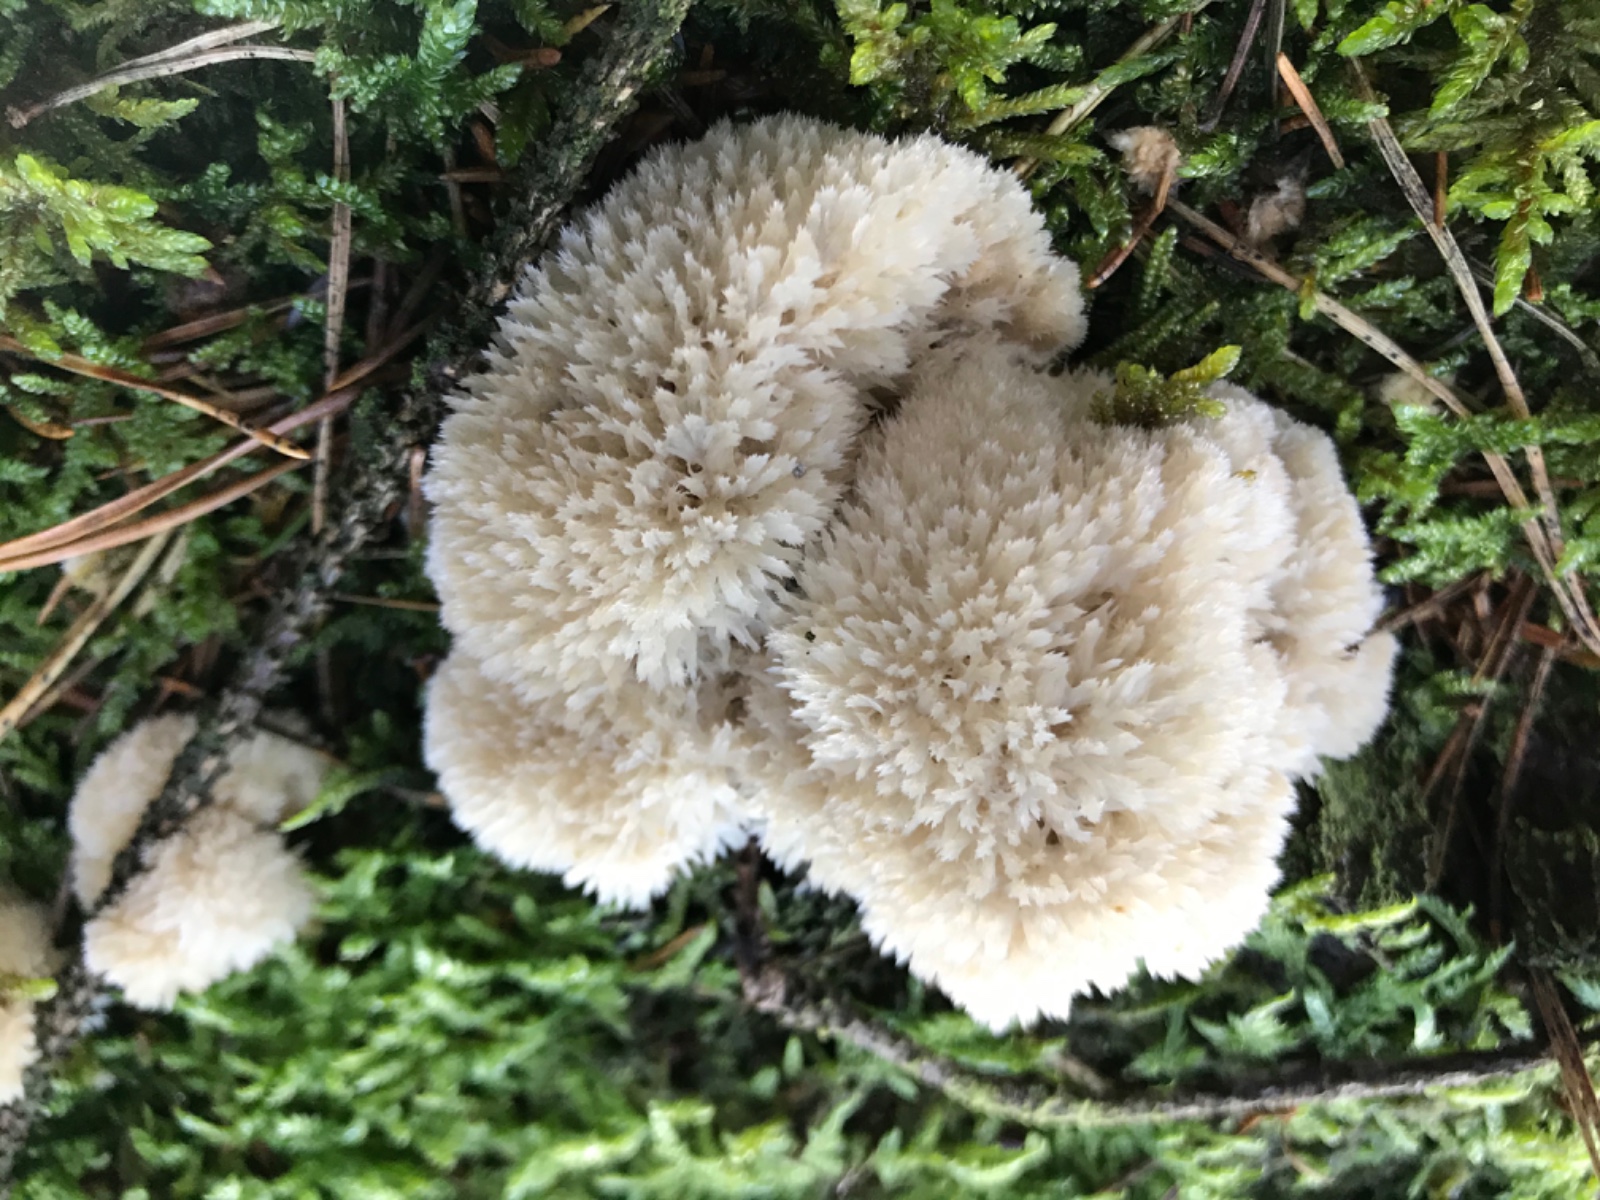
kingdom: Fungi
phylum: Basidiomycota
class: Agaricomycetes
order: Polyporales
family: Dacryobolaceae
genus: Postia
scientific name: Postia ptychogaster
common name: støvende kødporesvamp
